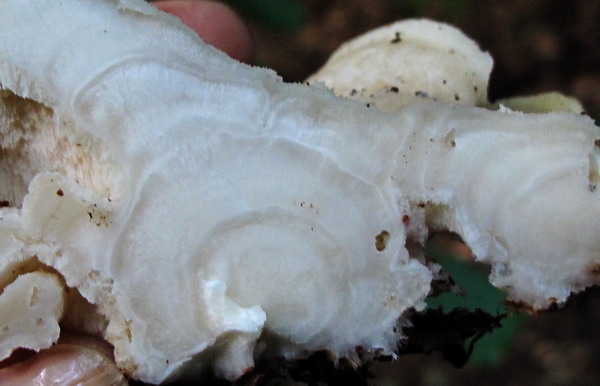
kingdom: Fungi
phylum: Basidiomycota
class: Agaricomycetes
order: Polyporales
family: Incrustoporiaceae
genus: Tyromyces
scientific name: Tyromyces chioneus
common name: stor blødporesvamp
